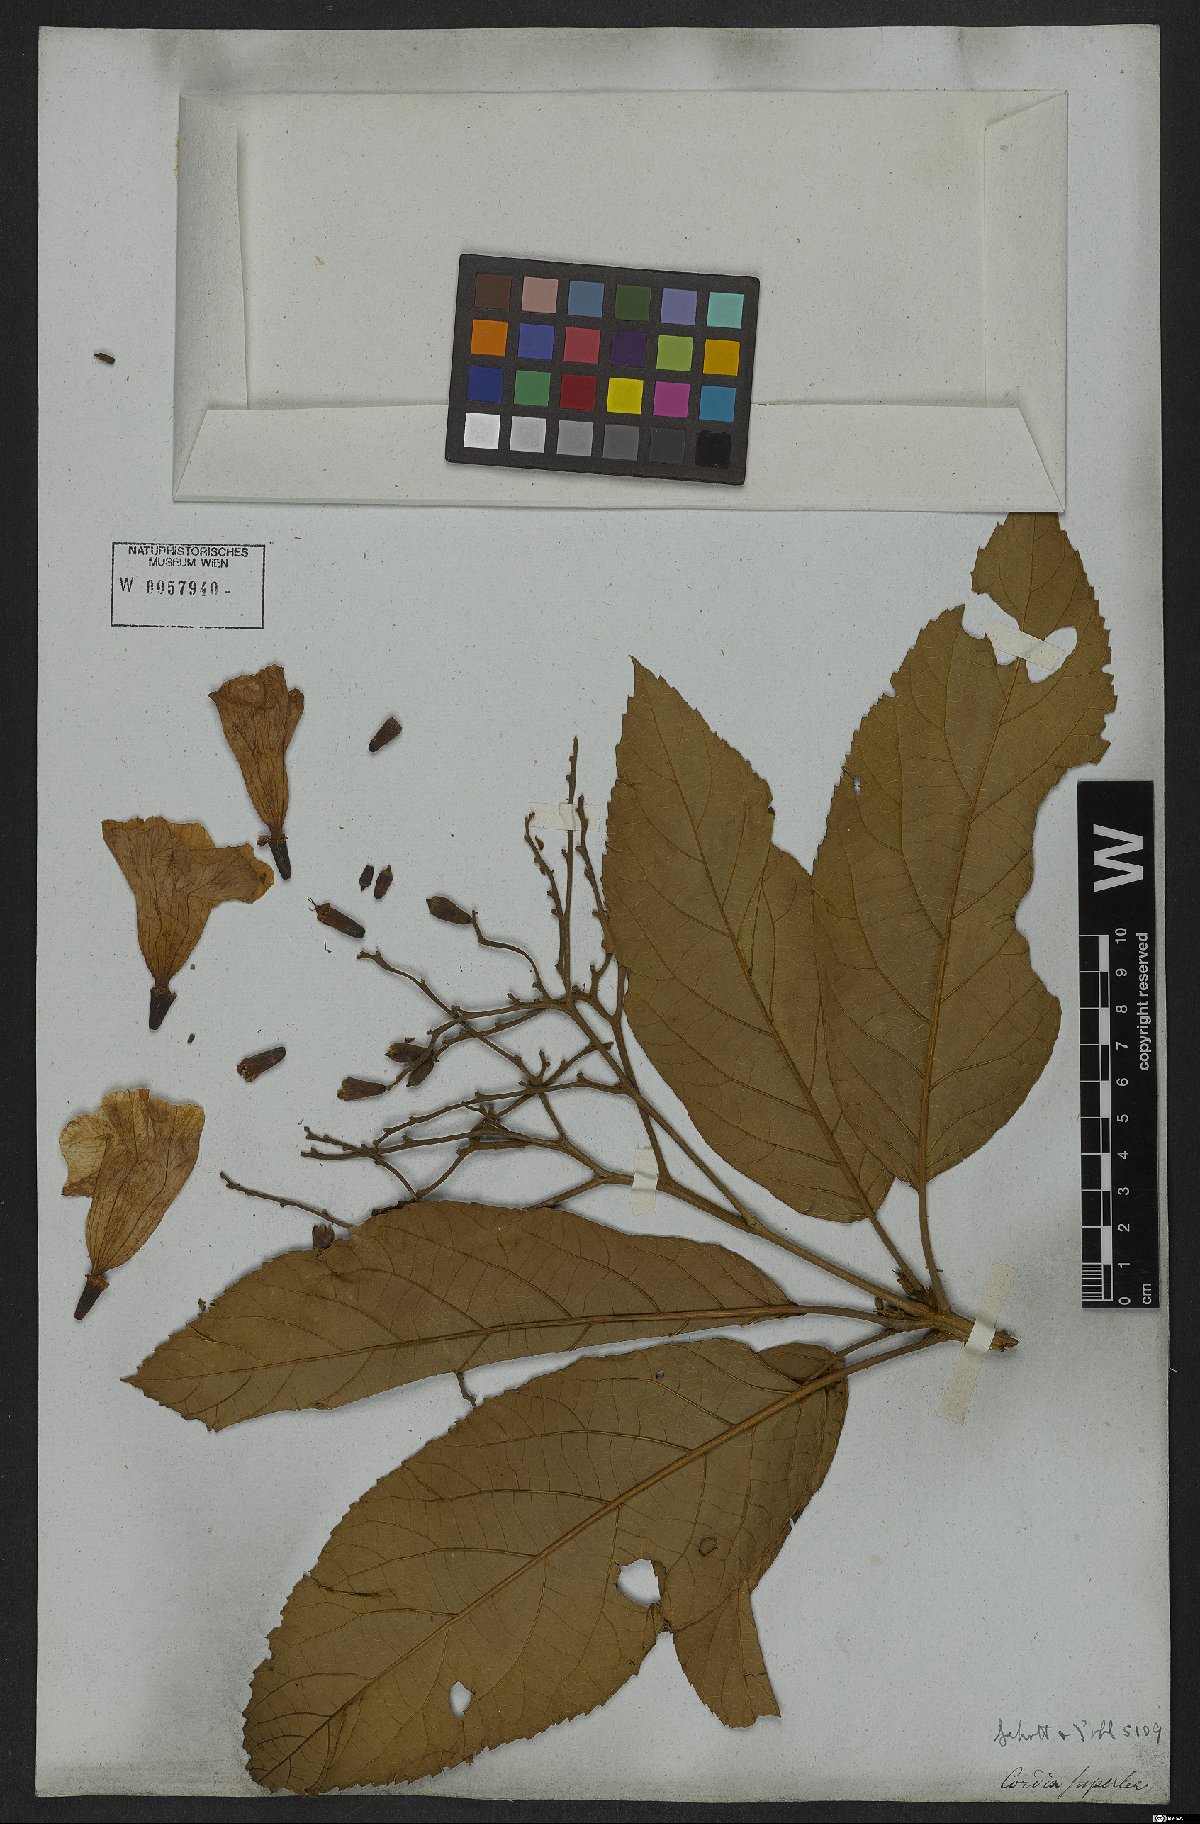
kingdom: Plantae
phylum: Tracheophyta
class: Magnoliopsida
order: Boraginales
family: Cordiaceae
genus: Cordia
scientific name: Cordia superba
